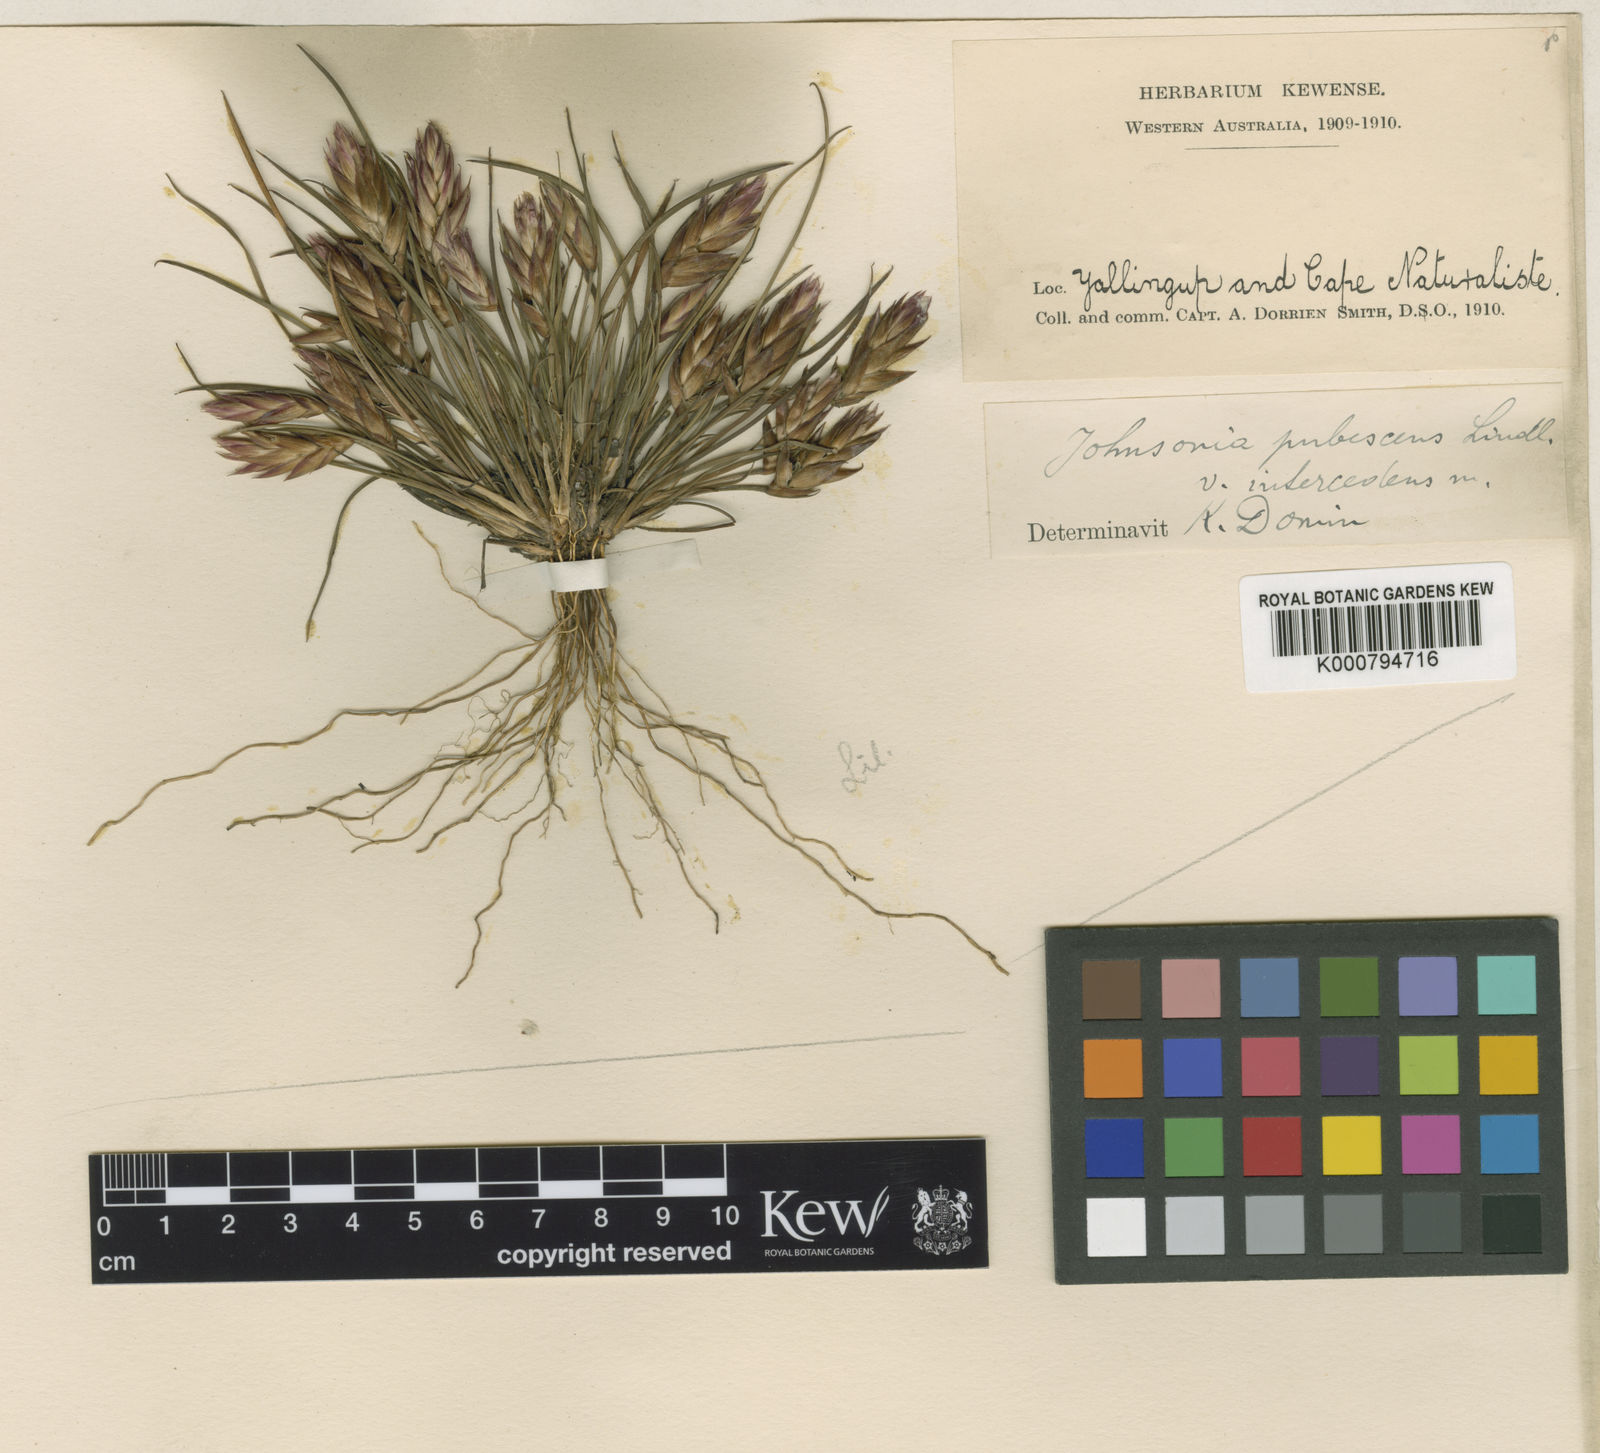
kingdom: Plantae
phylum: Tracheophyta
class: Liliopsida
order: Asparagales
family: Asphodelaceae
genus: Johnsonia
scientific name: Johnsonia acaulis
